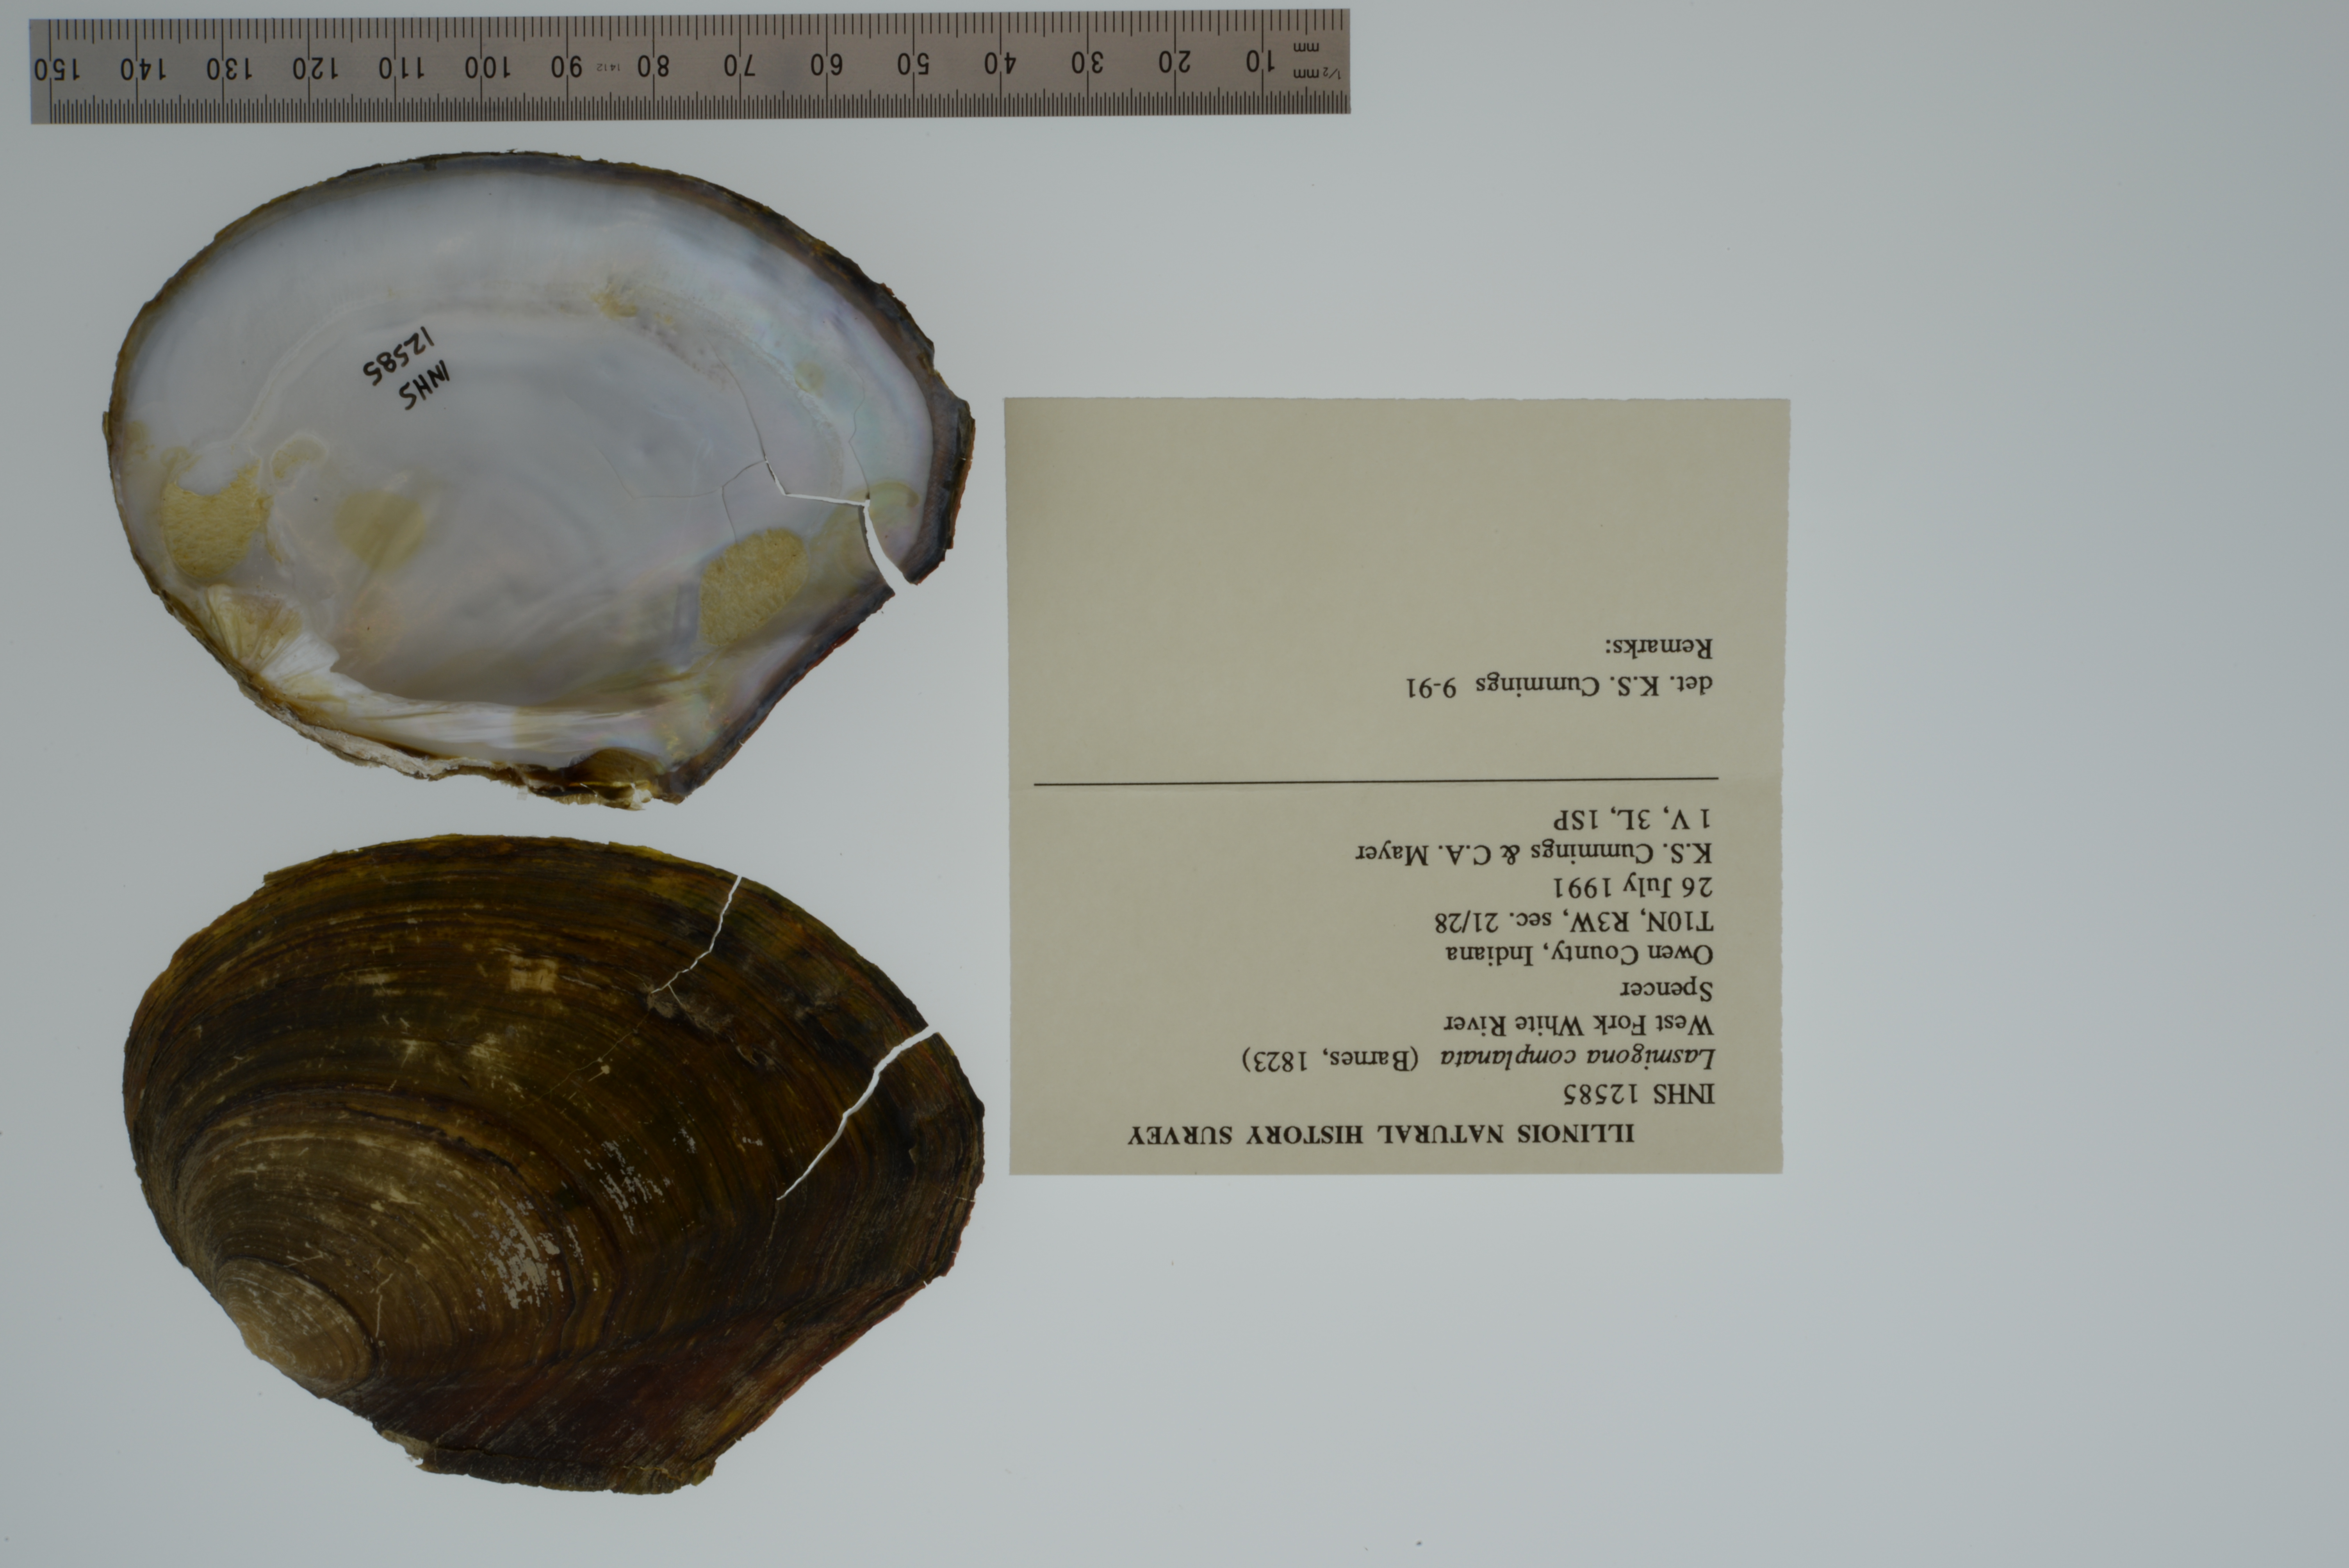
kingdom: Animalia
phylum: Mollusca
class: Bivalvia
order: Unionida
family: Unionidae
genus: Lasmigona
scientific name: Lasmigona complanata
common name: White heelsplitter
